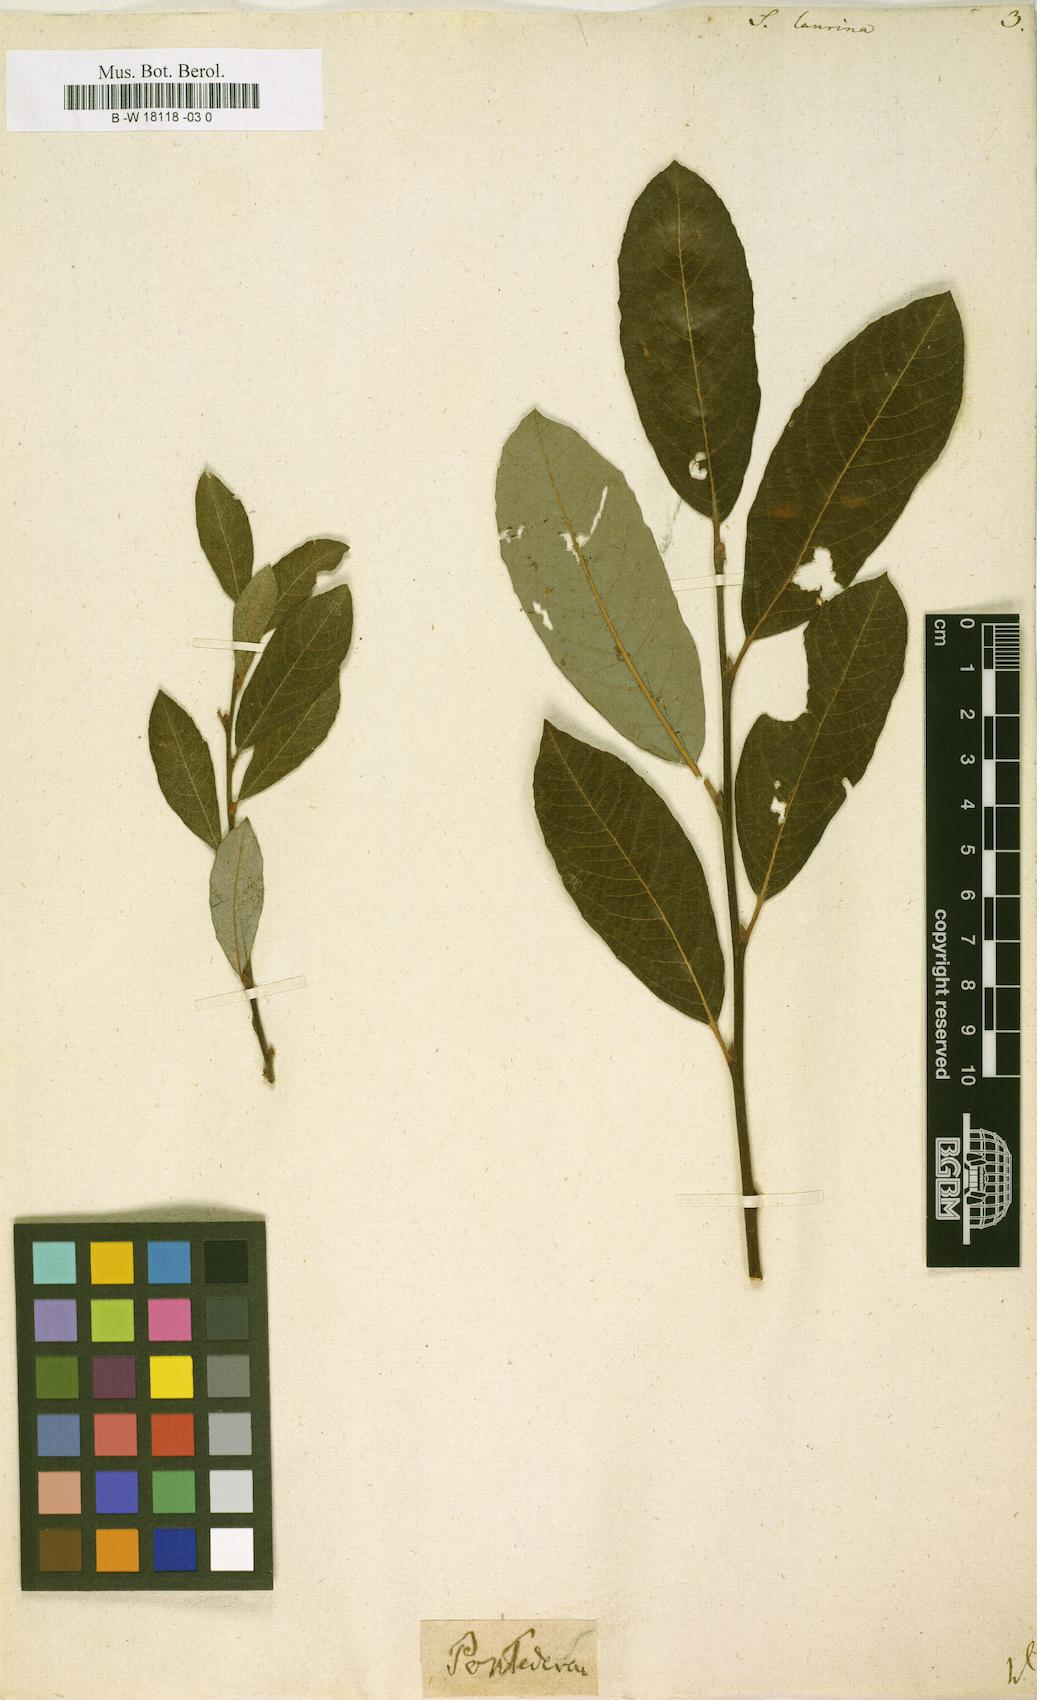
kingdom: Plantae
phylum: Tracheophyta
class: Magnoliopsida
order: Malpighiales
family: Salicaceae
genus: Salix
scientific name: Salix laurina
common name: Laurel-leaf willow
